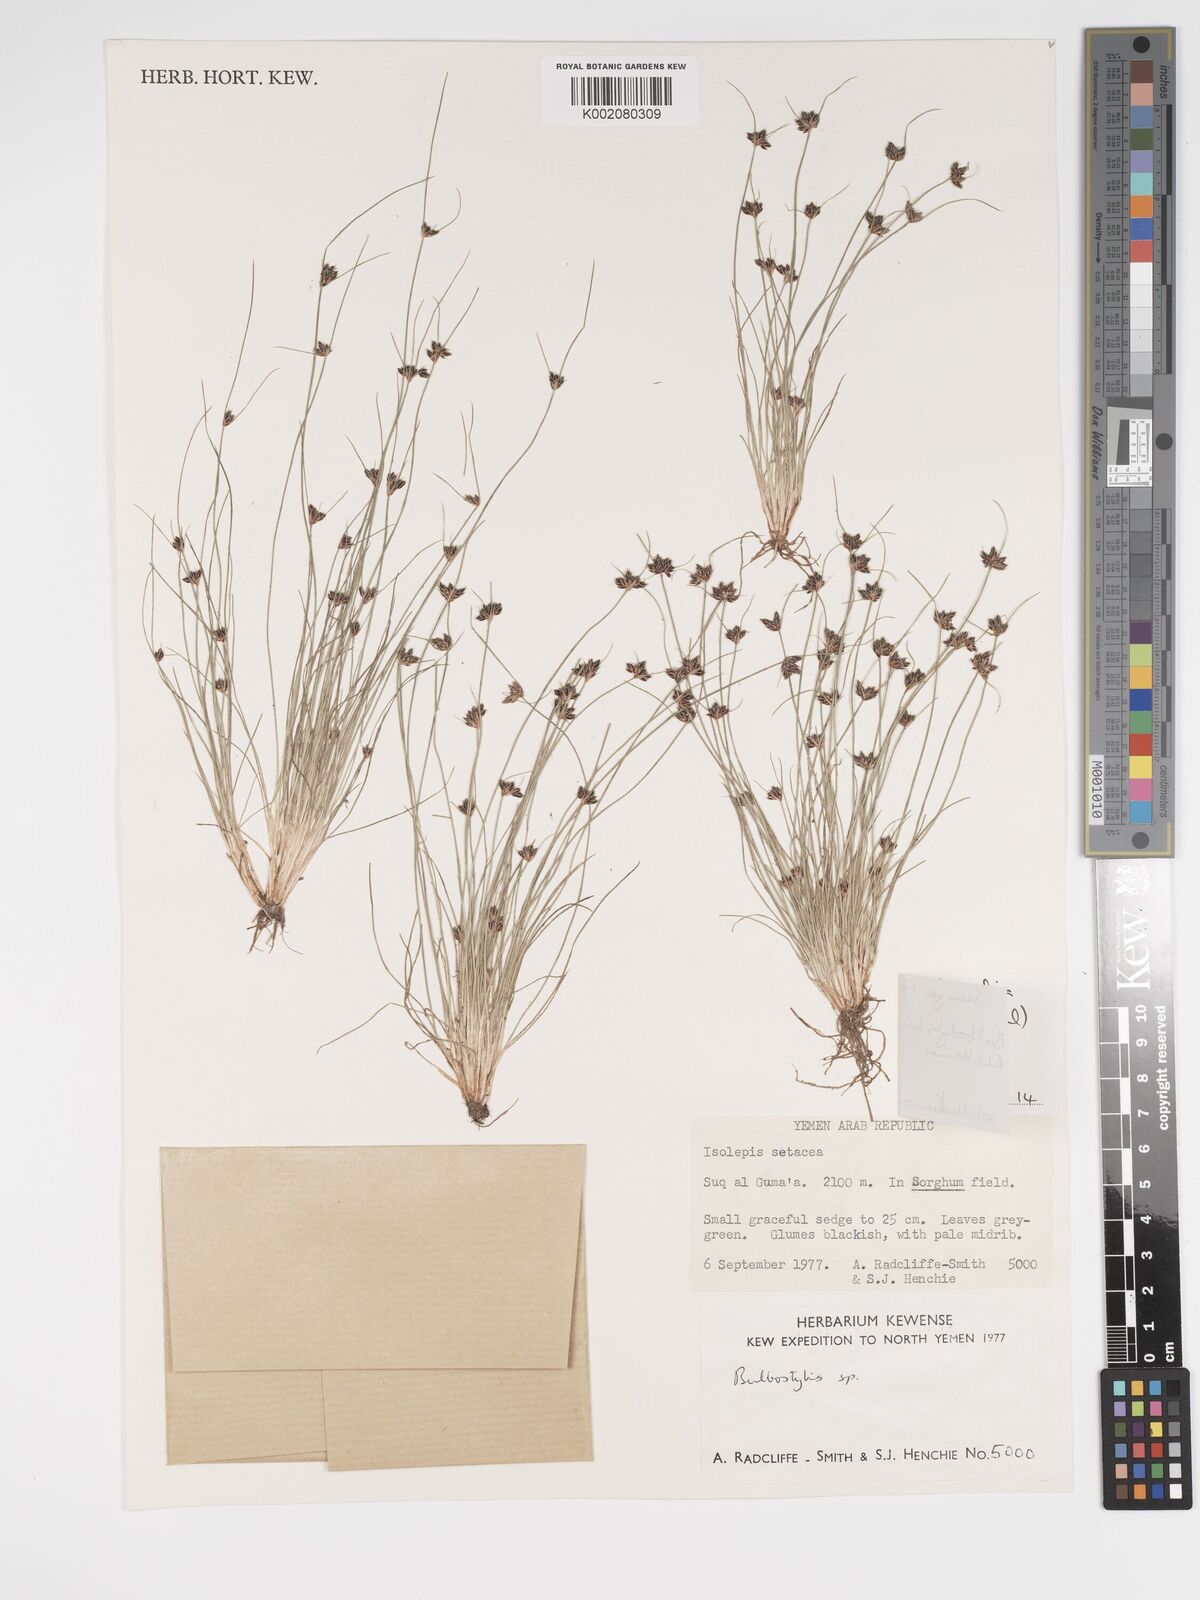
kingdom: Plantae
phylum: Tracheophyta
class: Liliopsida
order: Poales
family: Cyperaceae
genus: Bulbostylis
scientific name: Bulbostylis hispidula
